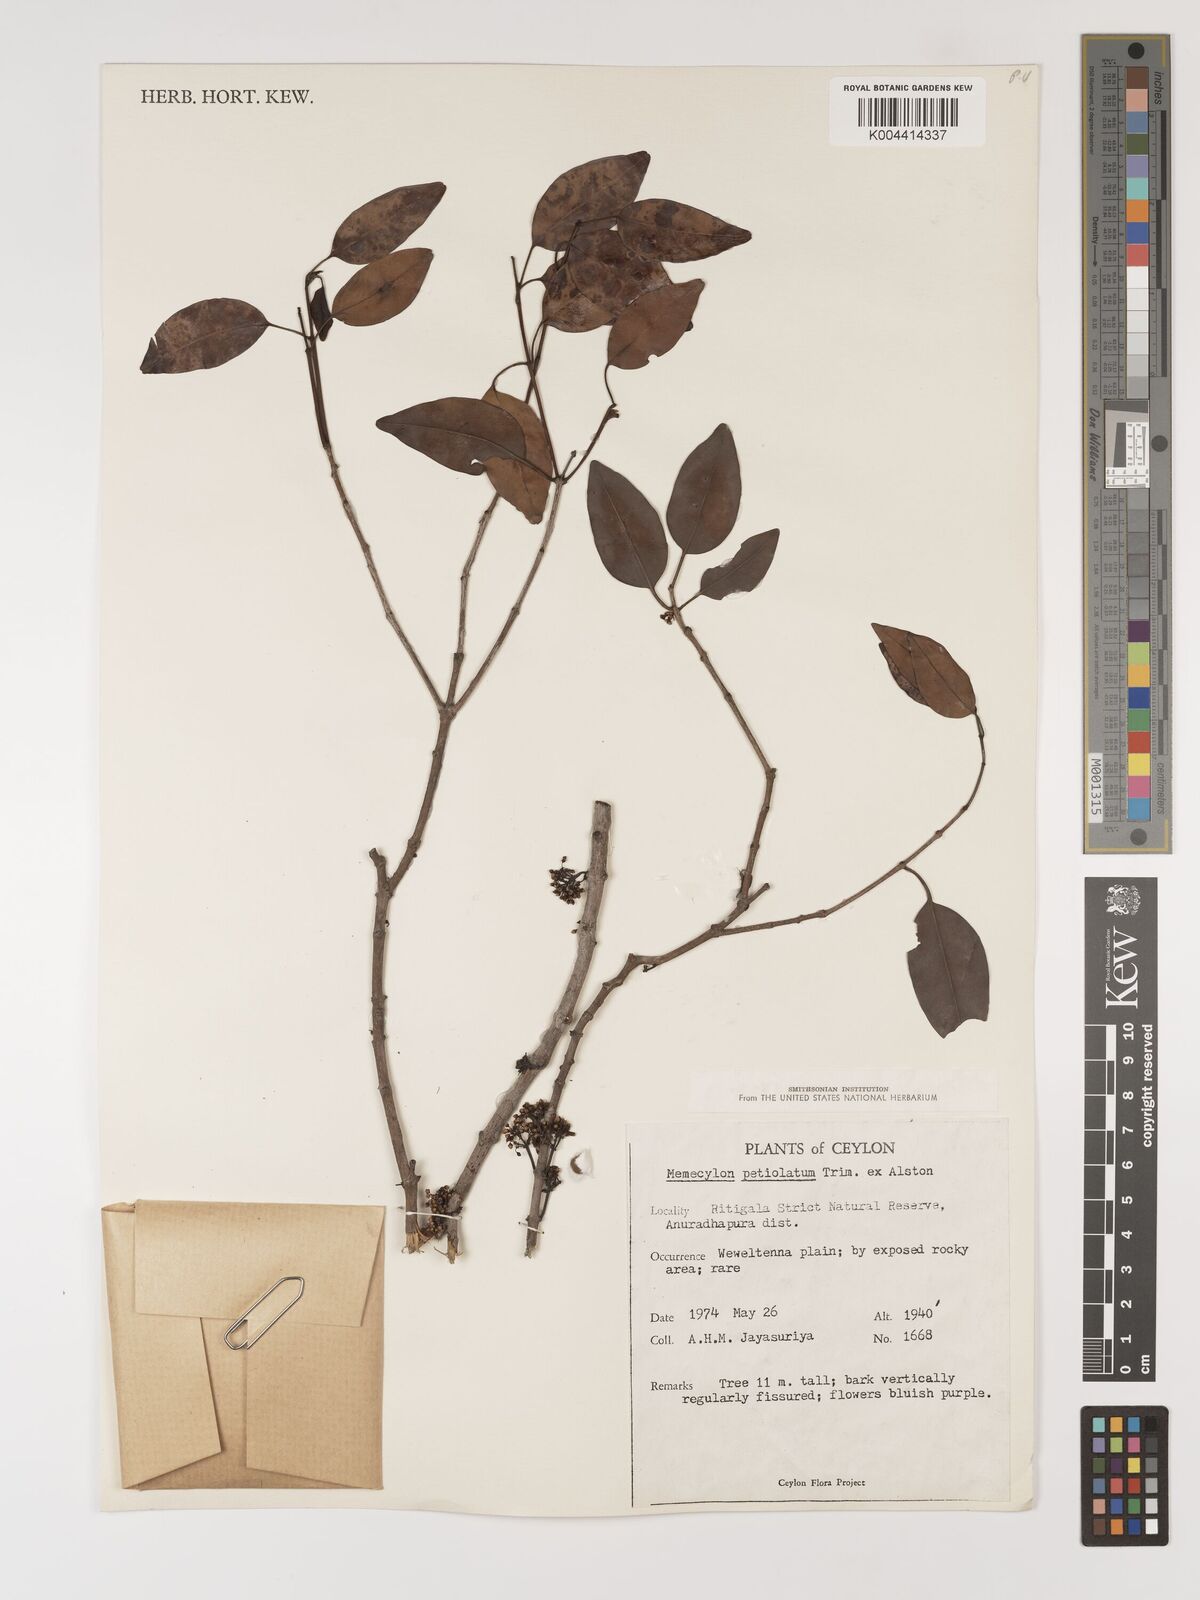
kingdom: Plantae
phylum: Tracheophyta
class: Magnoliopsida
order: Myrtales
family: Melastomataceae
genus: Memecylon
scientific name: Memecylon edule
